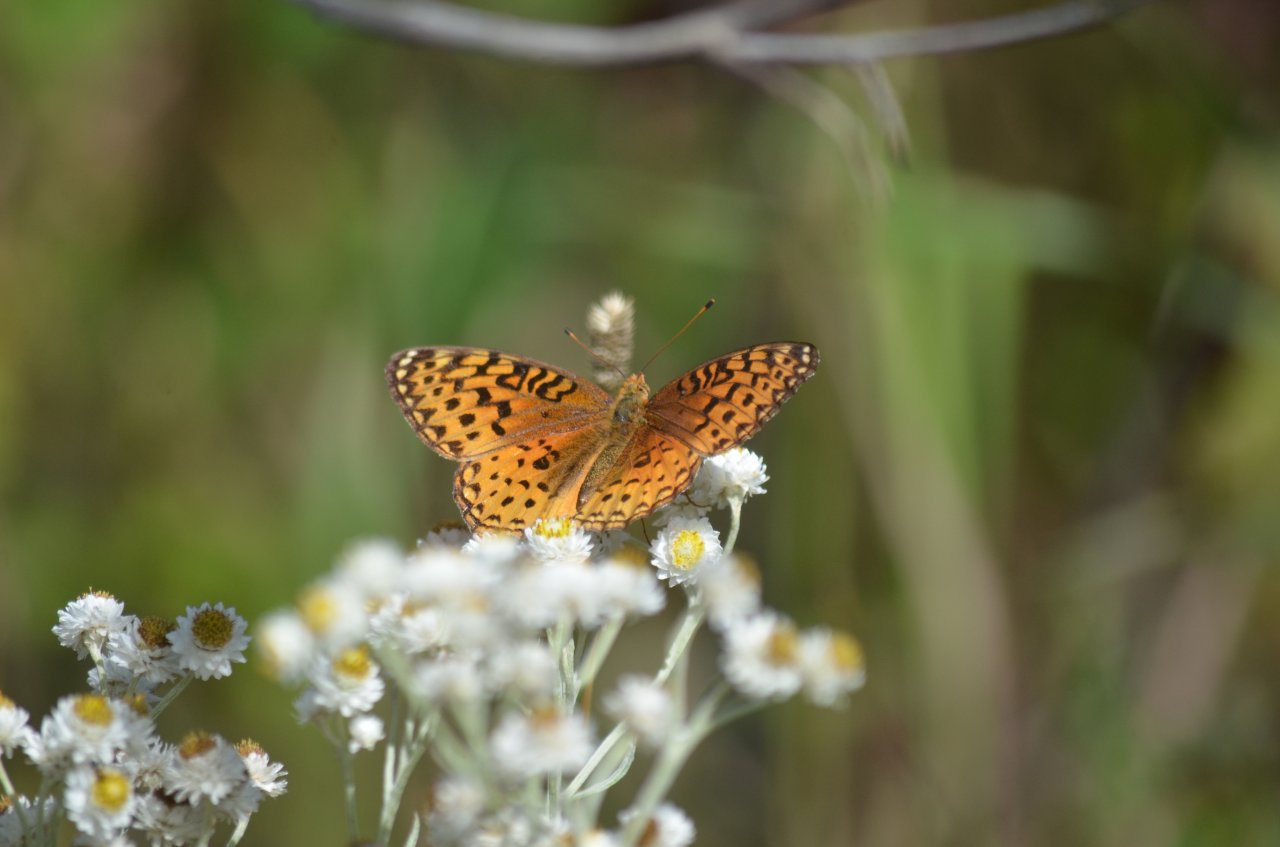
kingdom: Animalia
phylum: Arthropoda
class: Insecta
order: Lepidoptera
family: Nymphalidae
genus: Speyeria
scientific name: Speyeria aphrodite
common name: Aphrodite Fritillary
